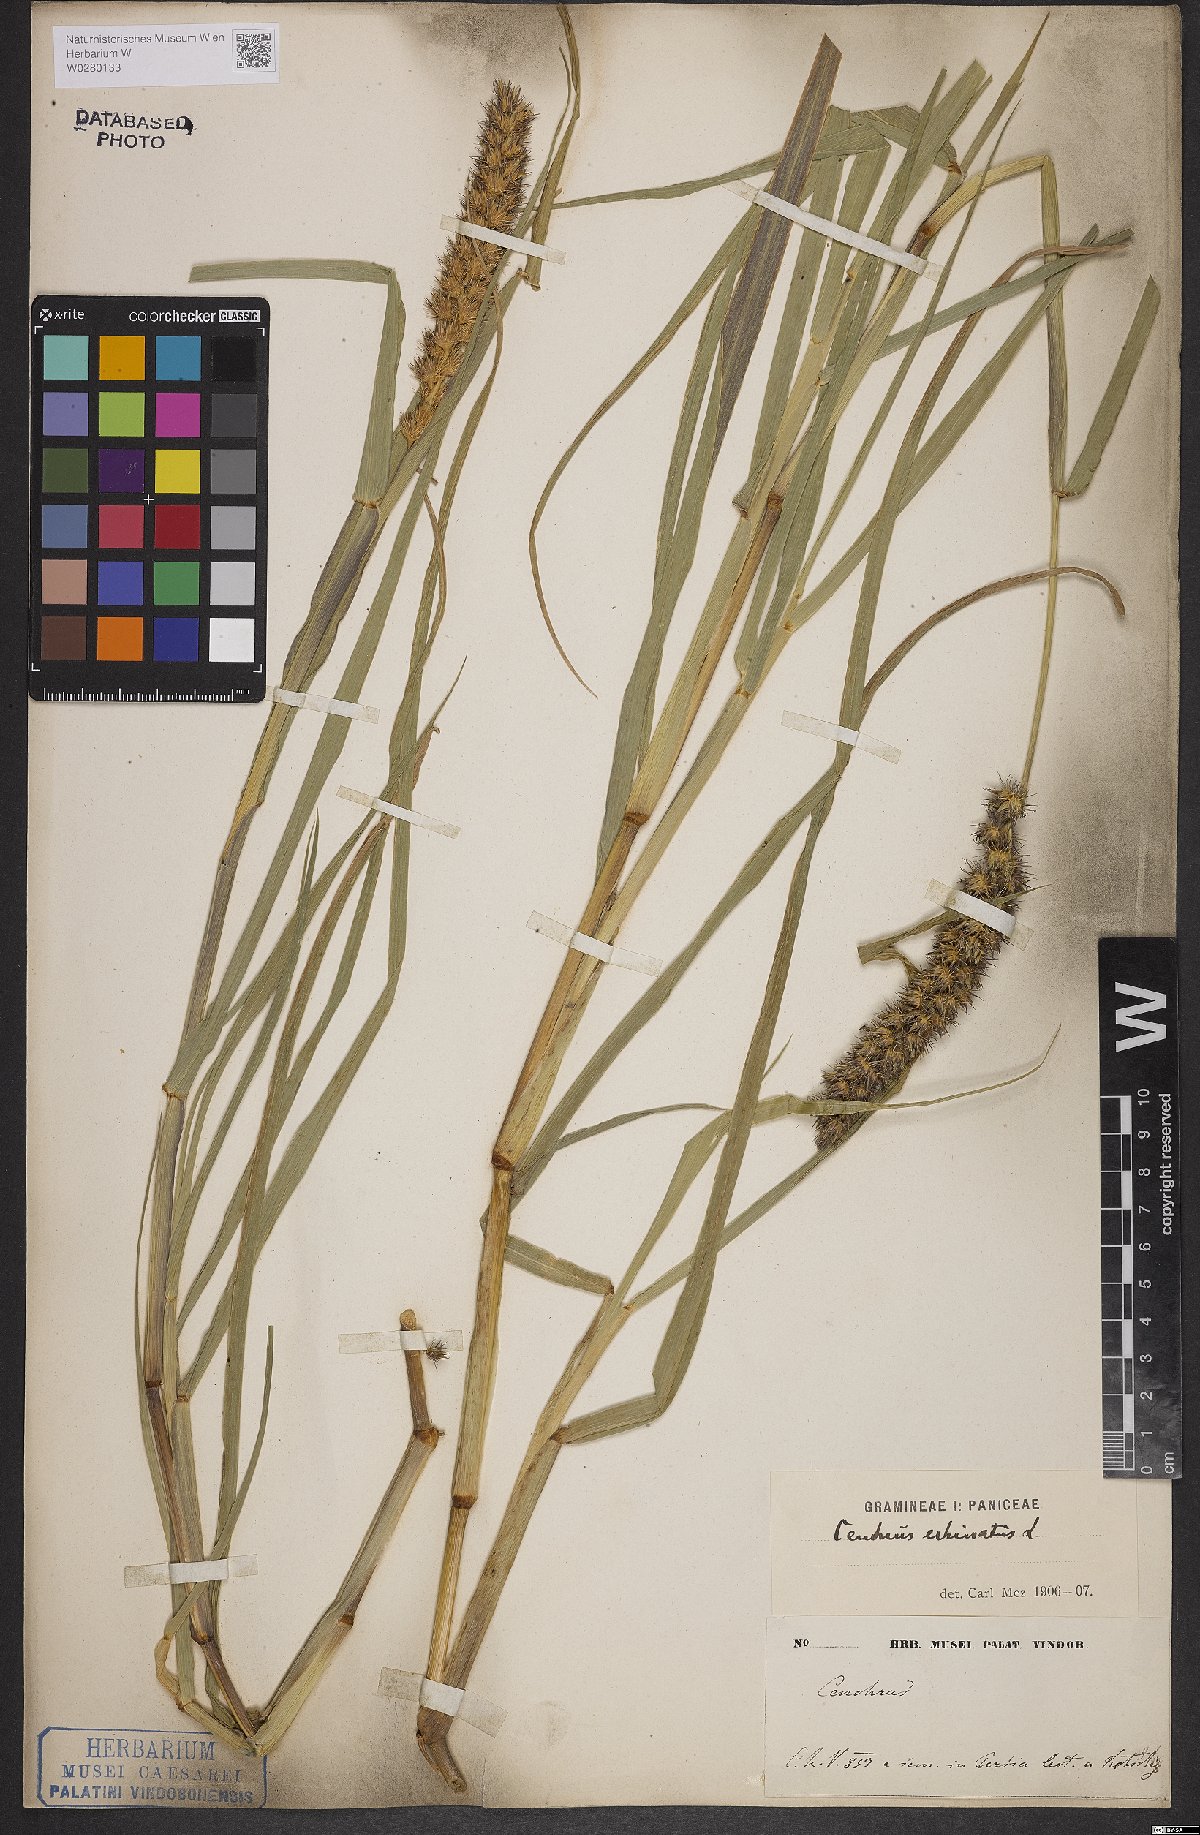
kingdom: Plantae
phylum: Tracheophyta
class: Liliopsida
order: Poales
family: Poaceae
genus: Cenchrus
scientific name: Cenchrus echinatus
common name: Southern sandbur
